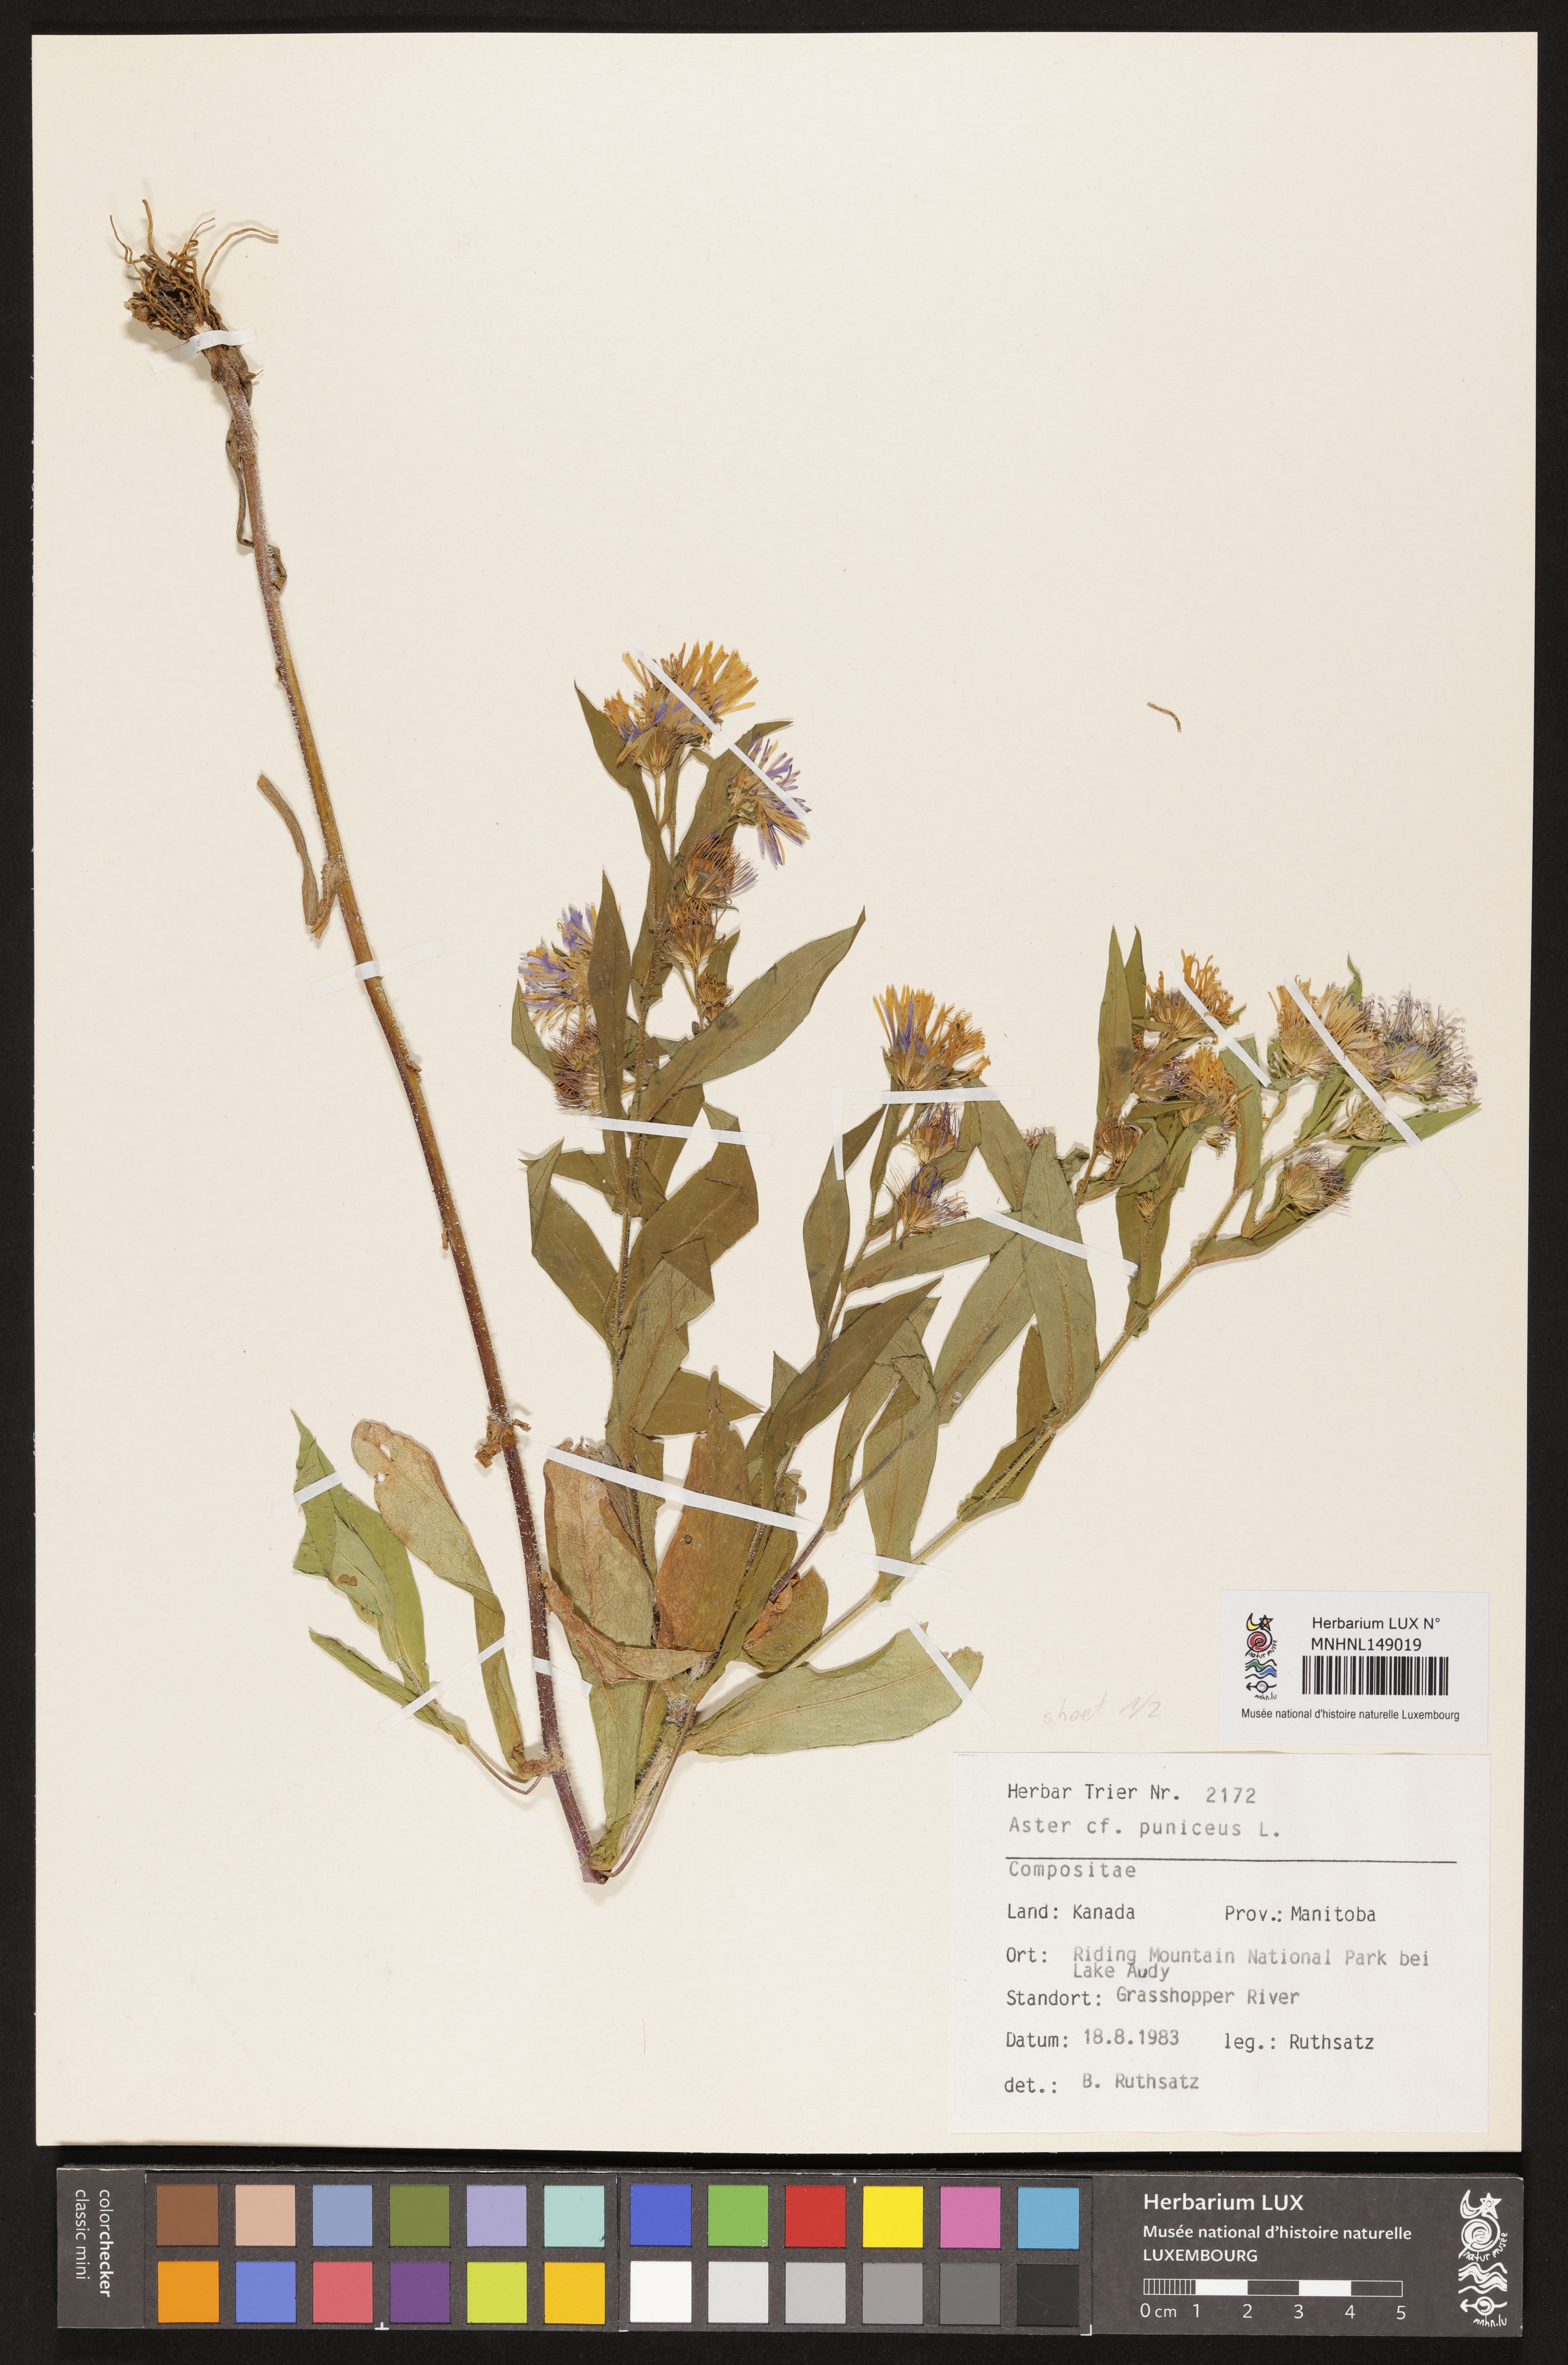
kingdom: Plantae
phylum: Tracheophyta
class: Magnoliopsida
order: Asterales
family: Asteraceae
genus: Symphyotrichum
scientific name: Symphyotrichum puniceum
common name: Bog aster
